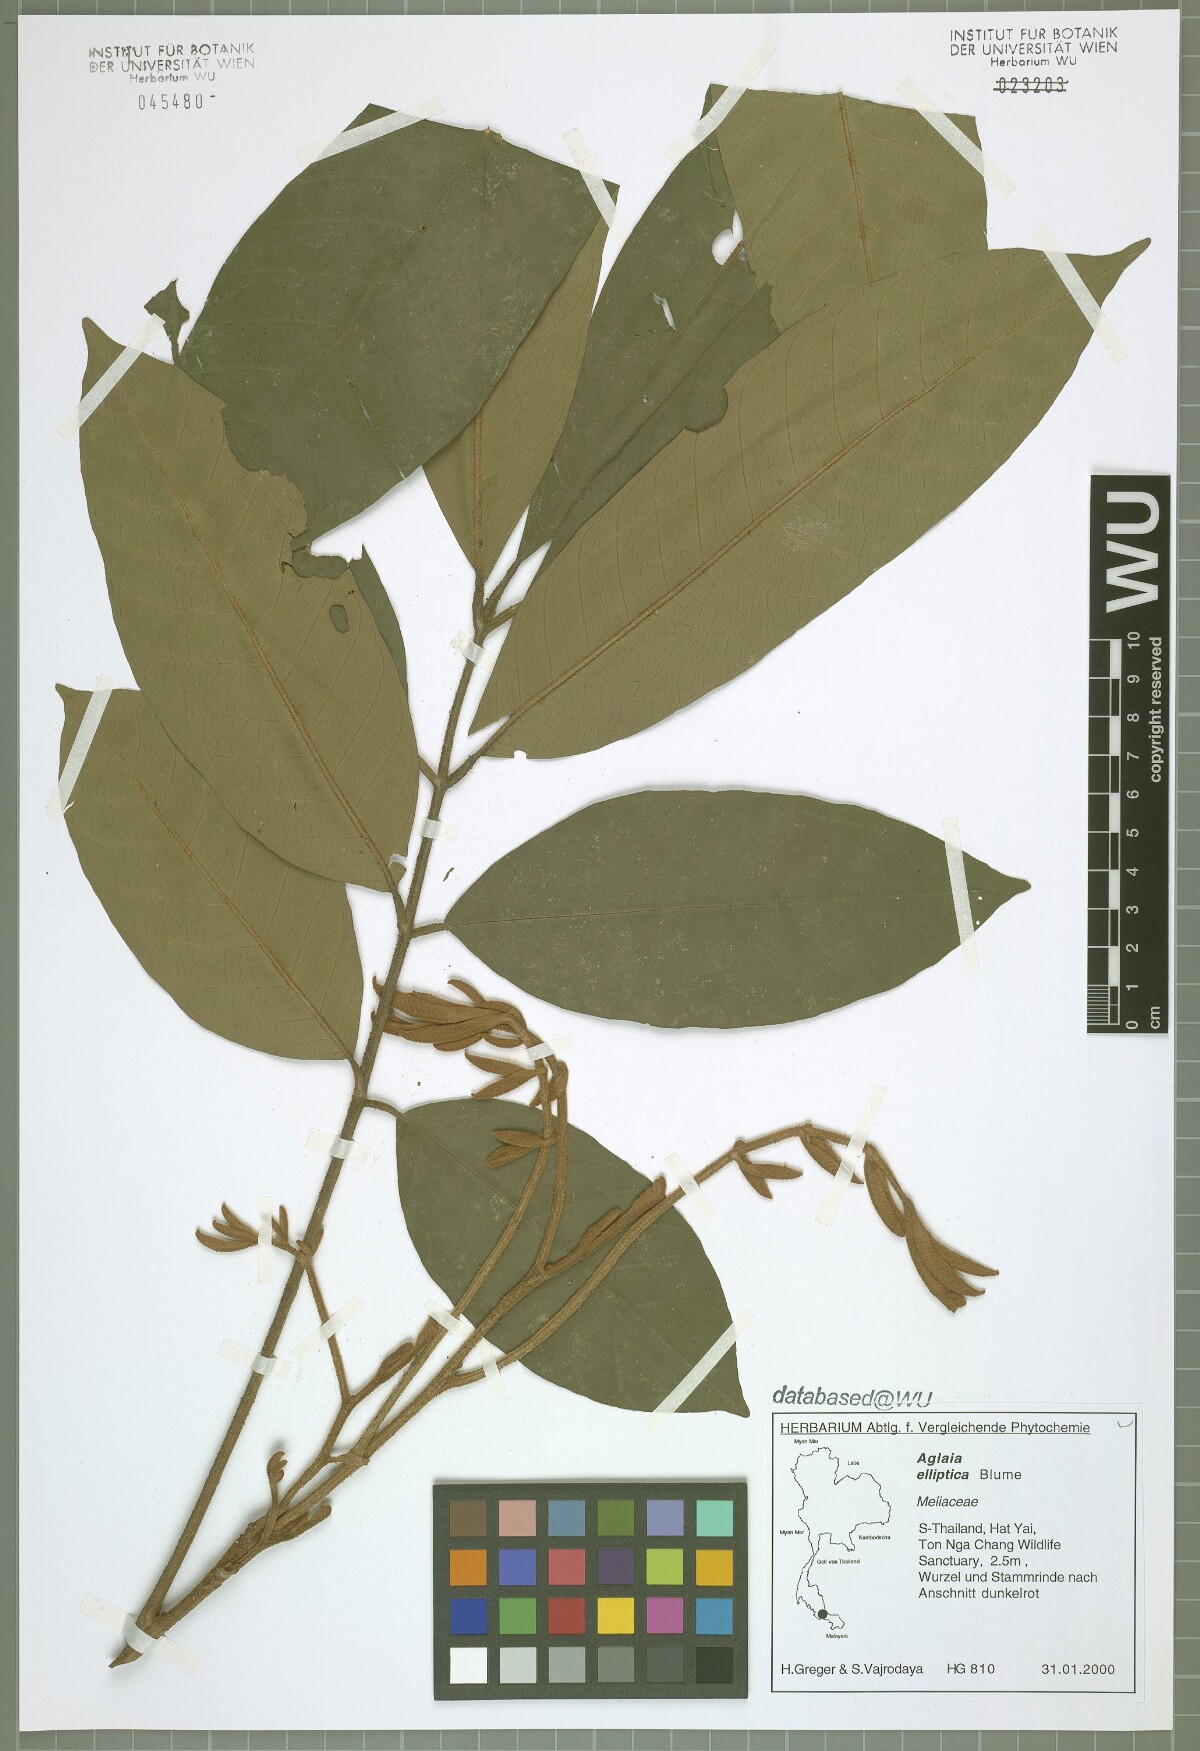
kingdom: Plantae
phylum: Tracheophyta
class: Magnoliopsida
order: Sapindales
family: Meliaceae
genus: Aglaia
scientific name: Aglaia elliptica
